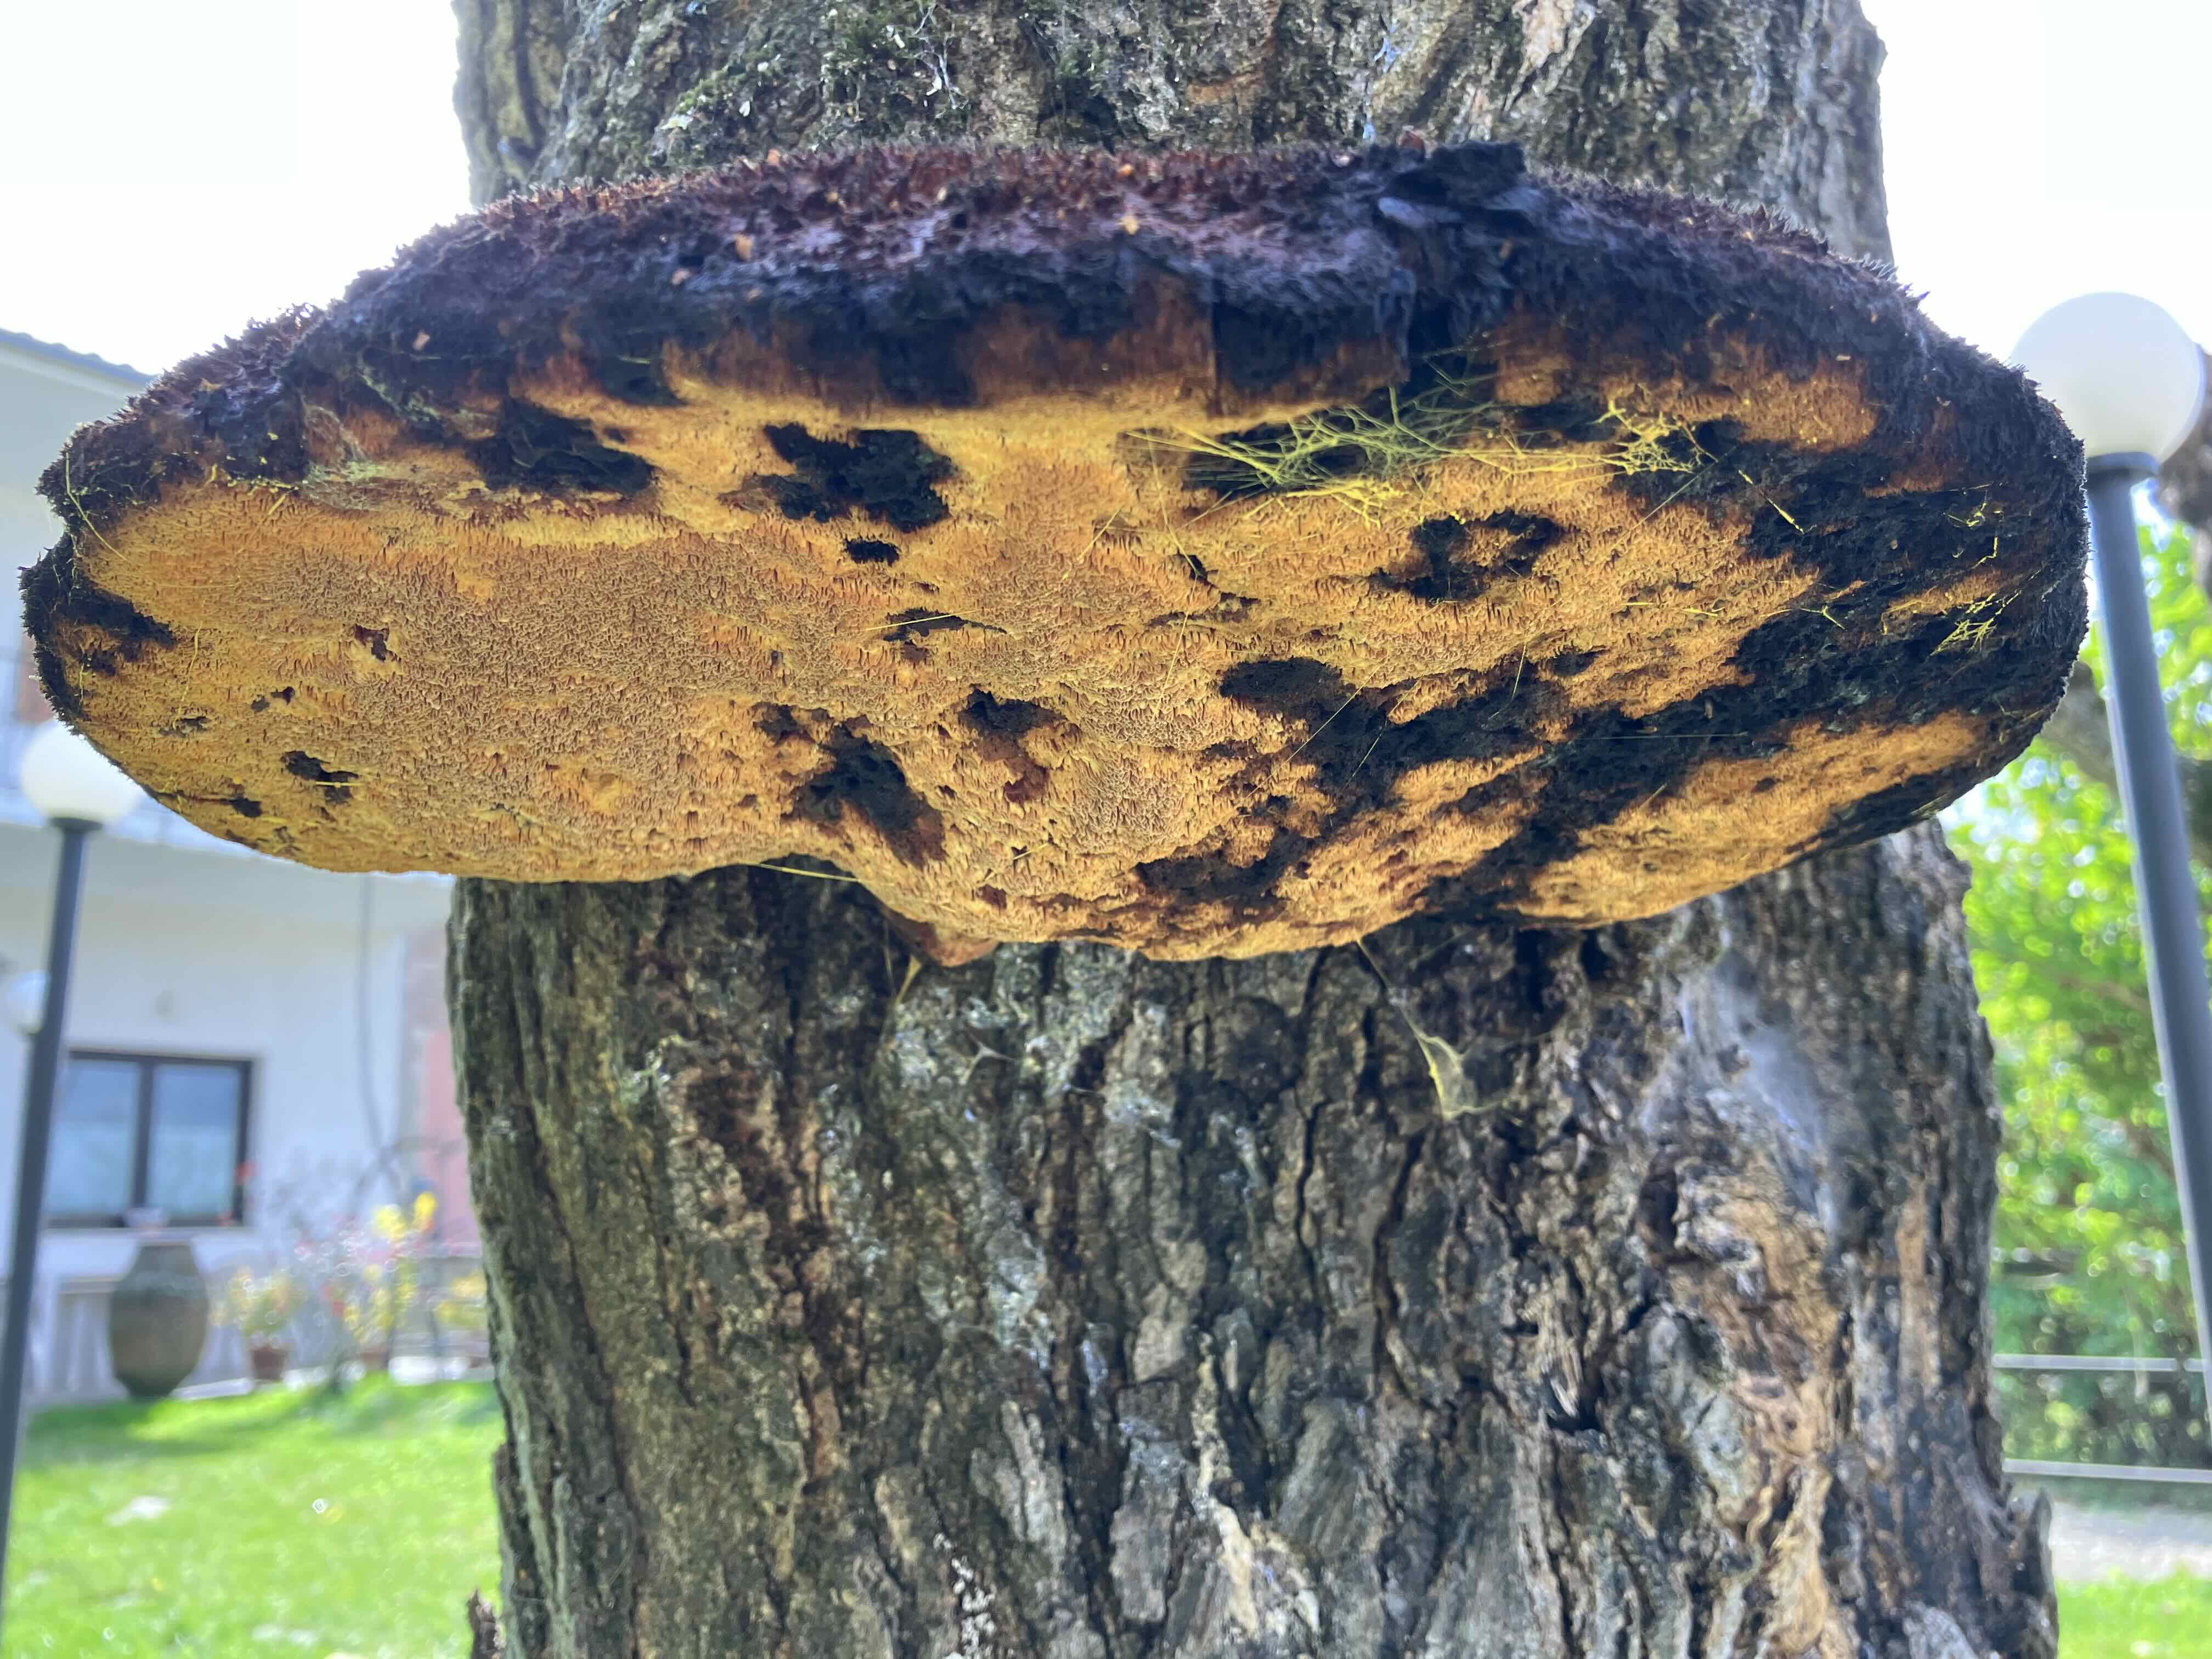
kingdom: Fungi
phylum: Basidiomycota
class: Agaricomycetes
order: Hymenochaetales
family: Hymenochaetaceae
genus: Inonotus
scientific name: Inonotus hispidus
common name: børstehåret spejlporesvamp
